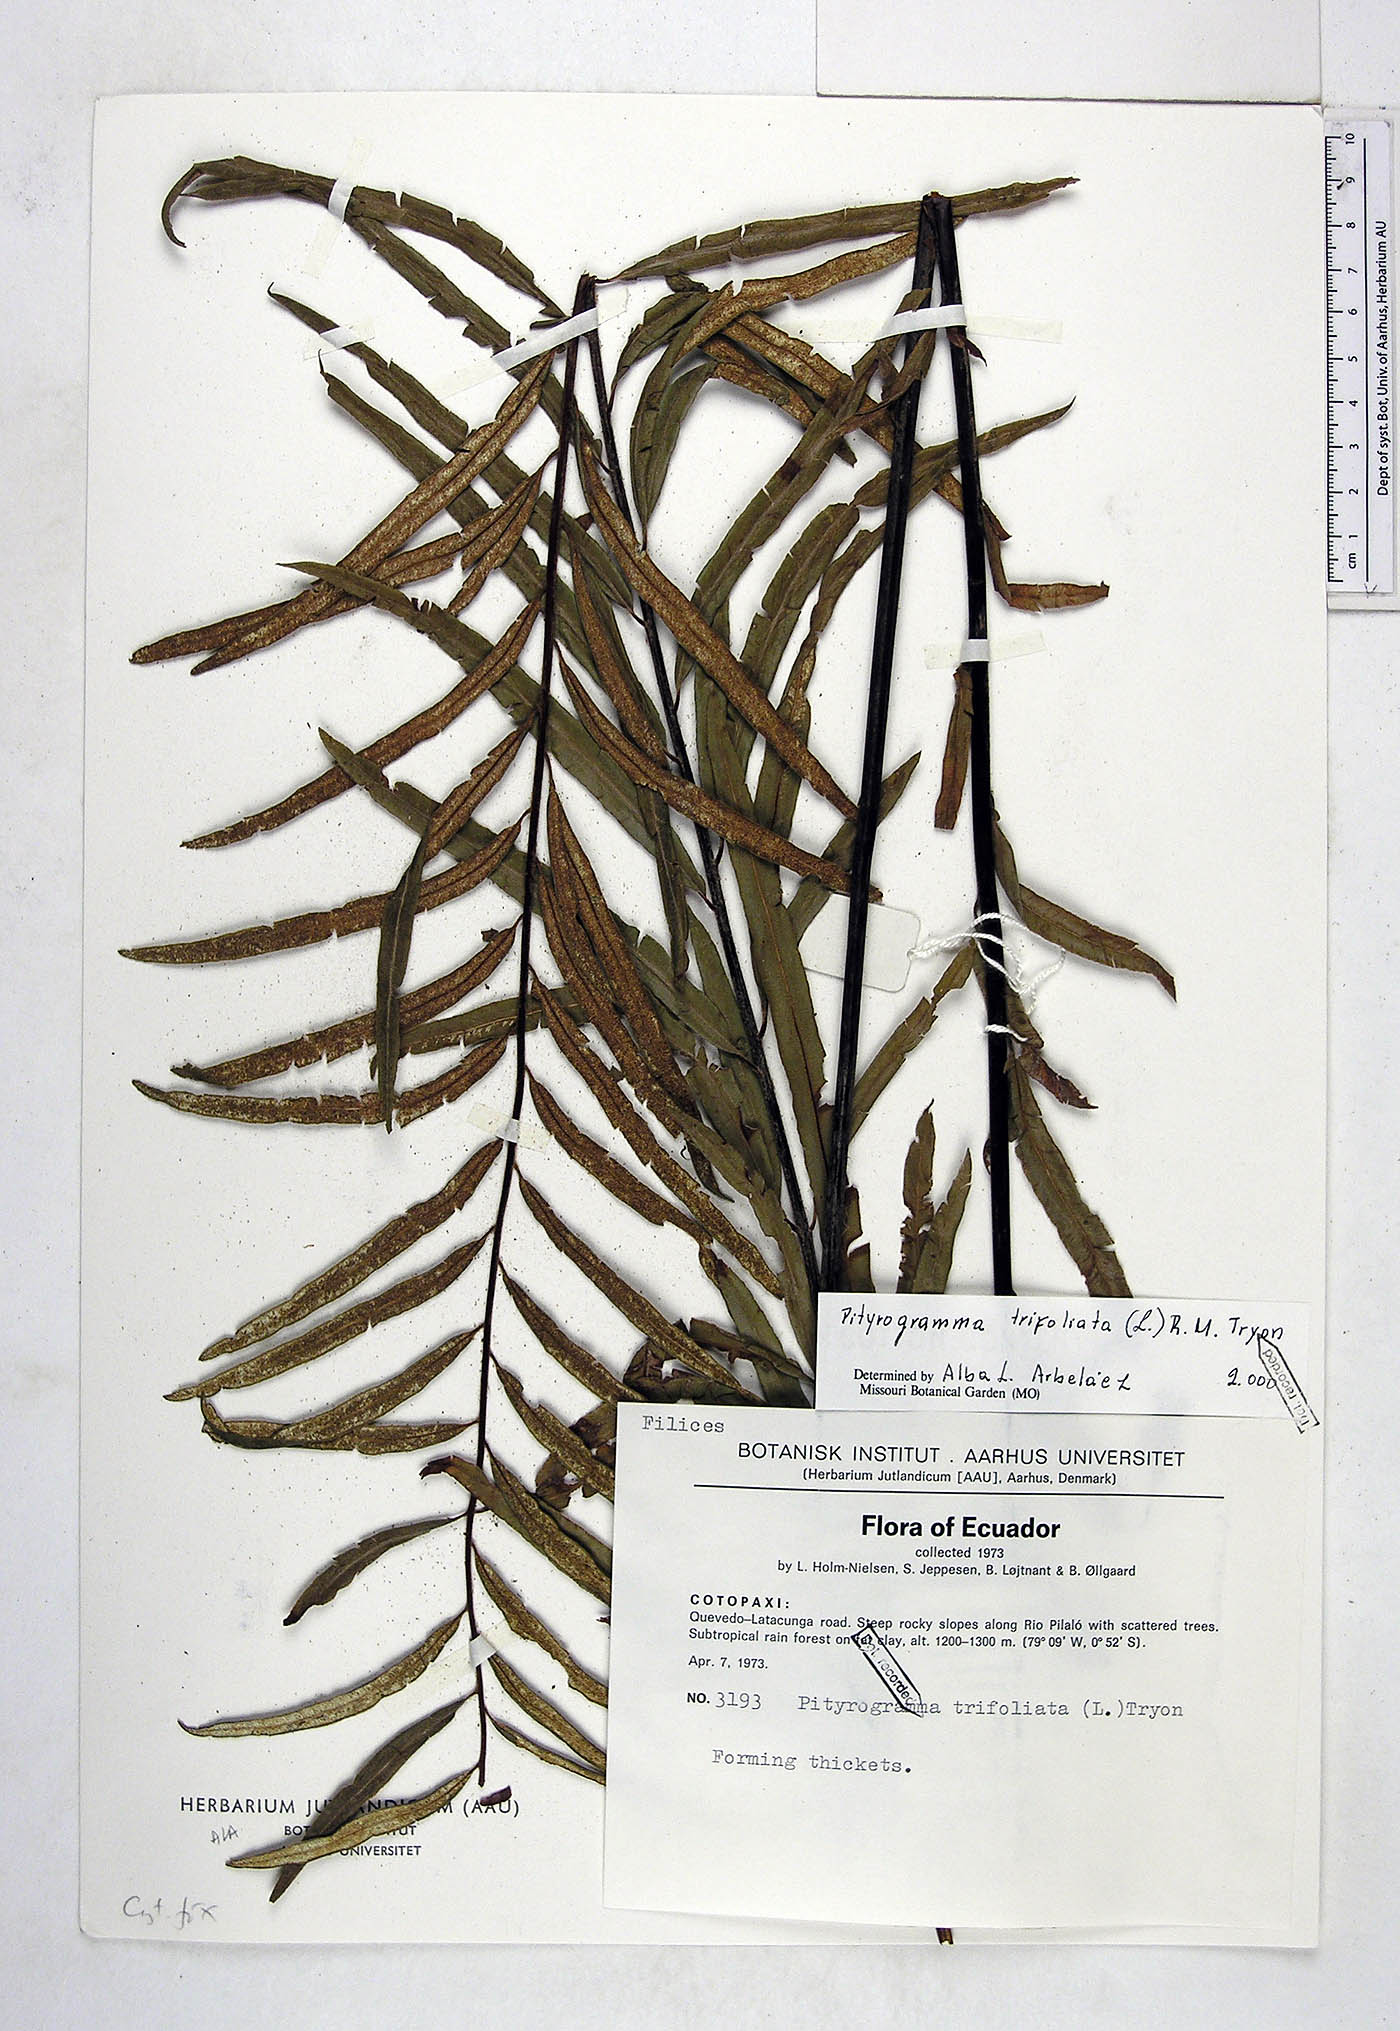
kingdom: Plantae
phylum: Tracheophyta
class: Polypodiopsida
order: Polypodiales
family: Pteridaceae
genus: Pityrogramma
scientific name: Pityrogramma trifoliata
